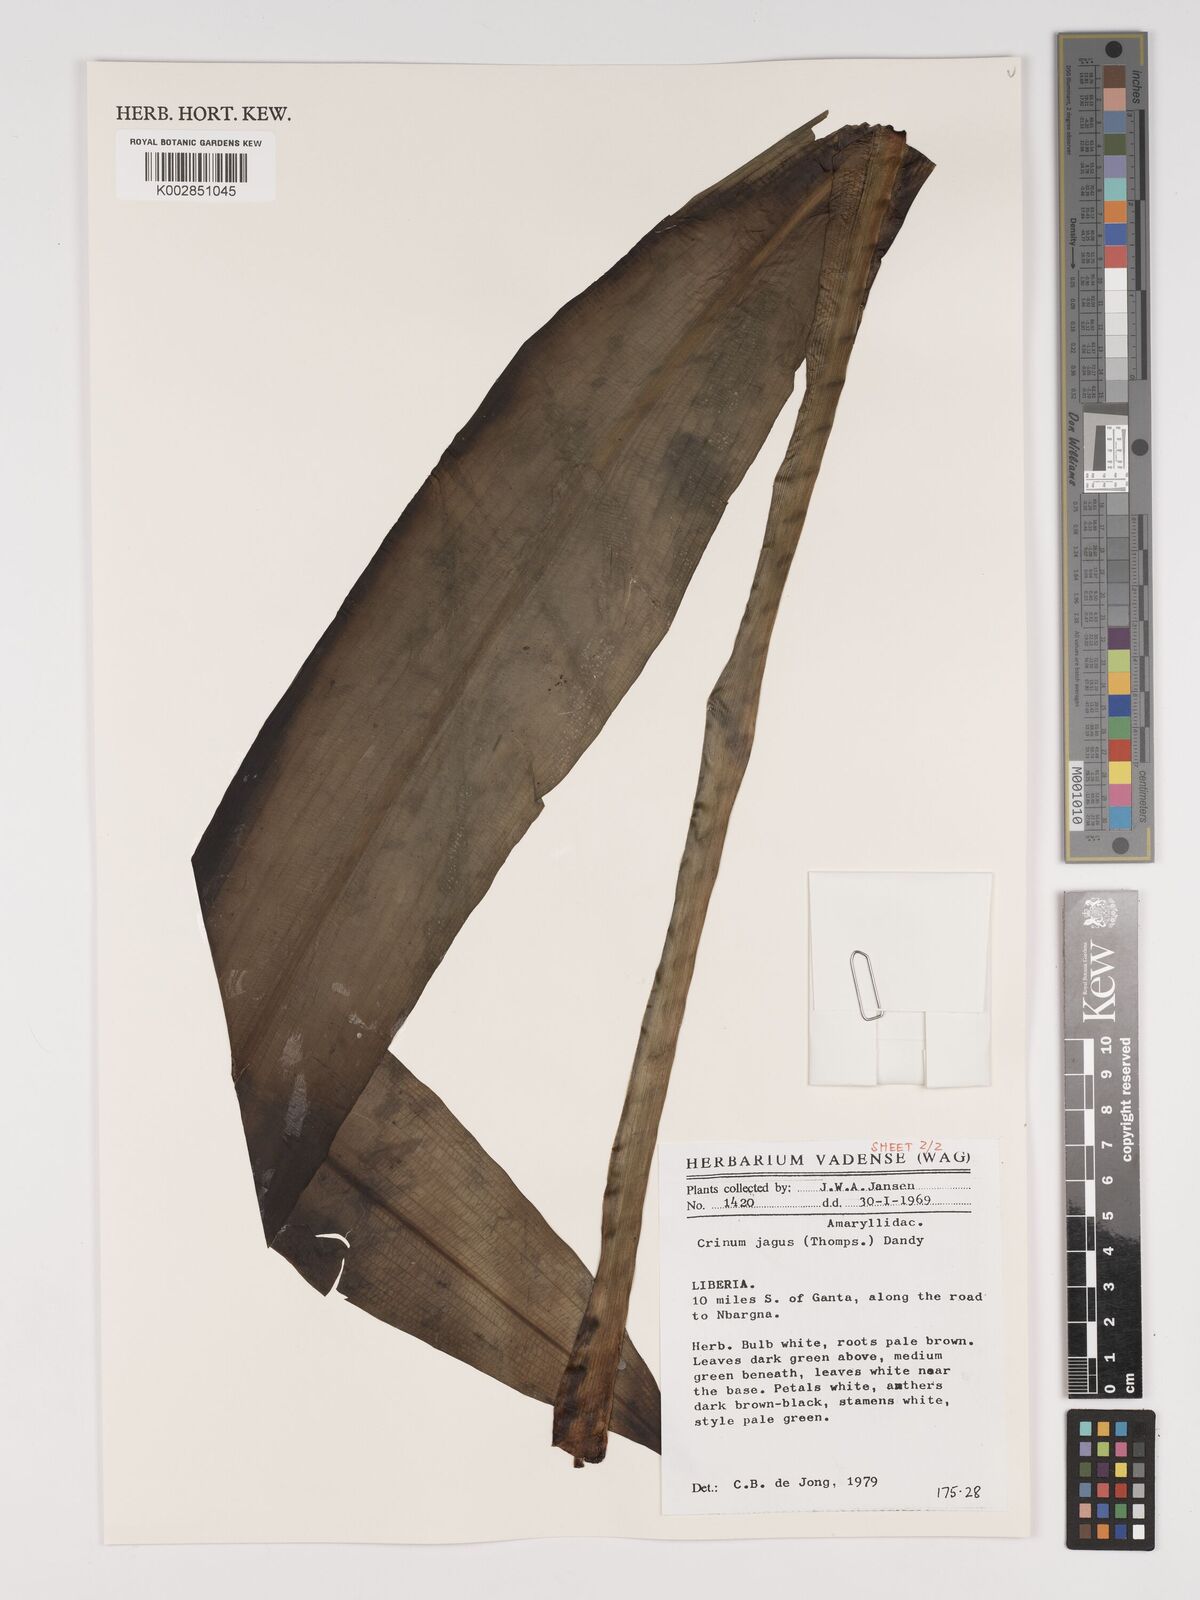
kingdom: Plantae
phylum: Tracheophyta
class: Liliopsida
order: Asparagales
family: Amaryllidaceae
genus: Crinum
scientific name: Crinum jagus
